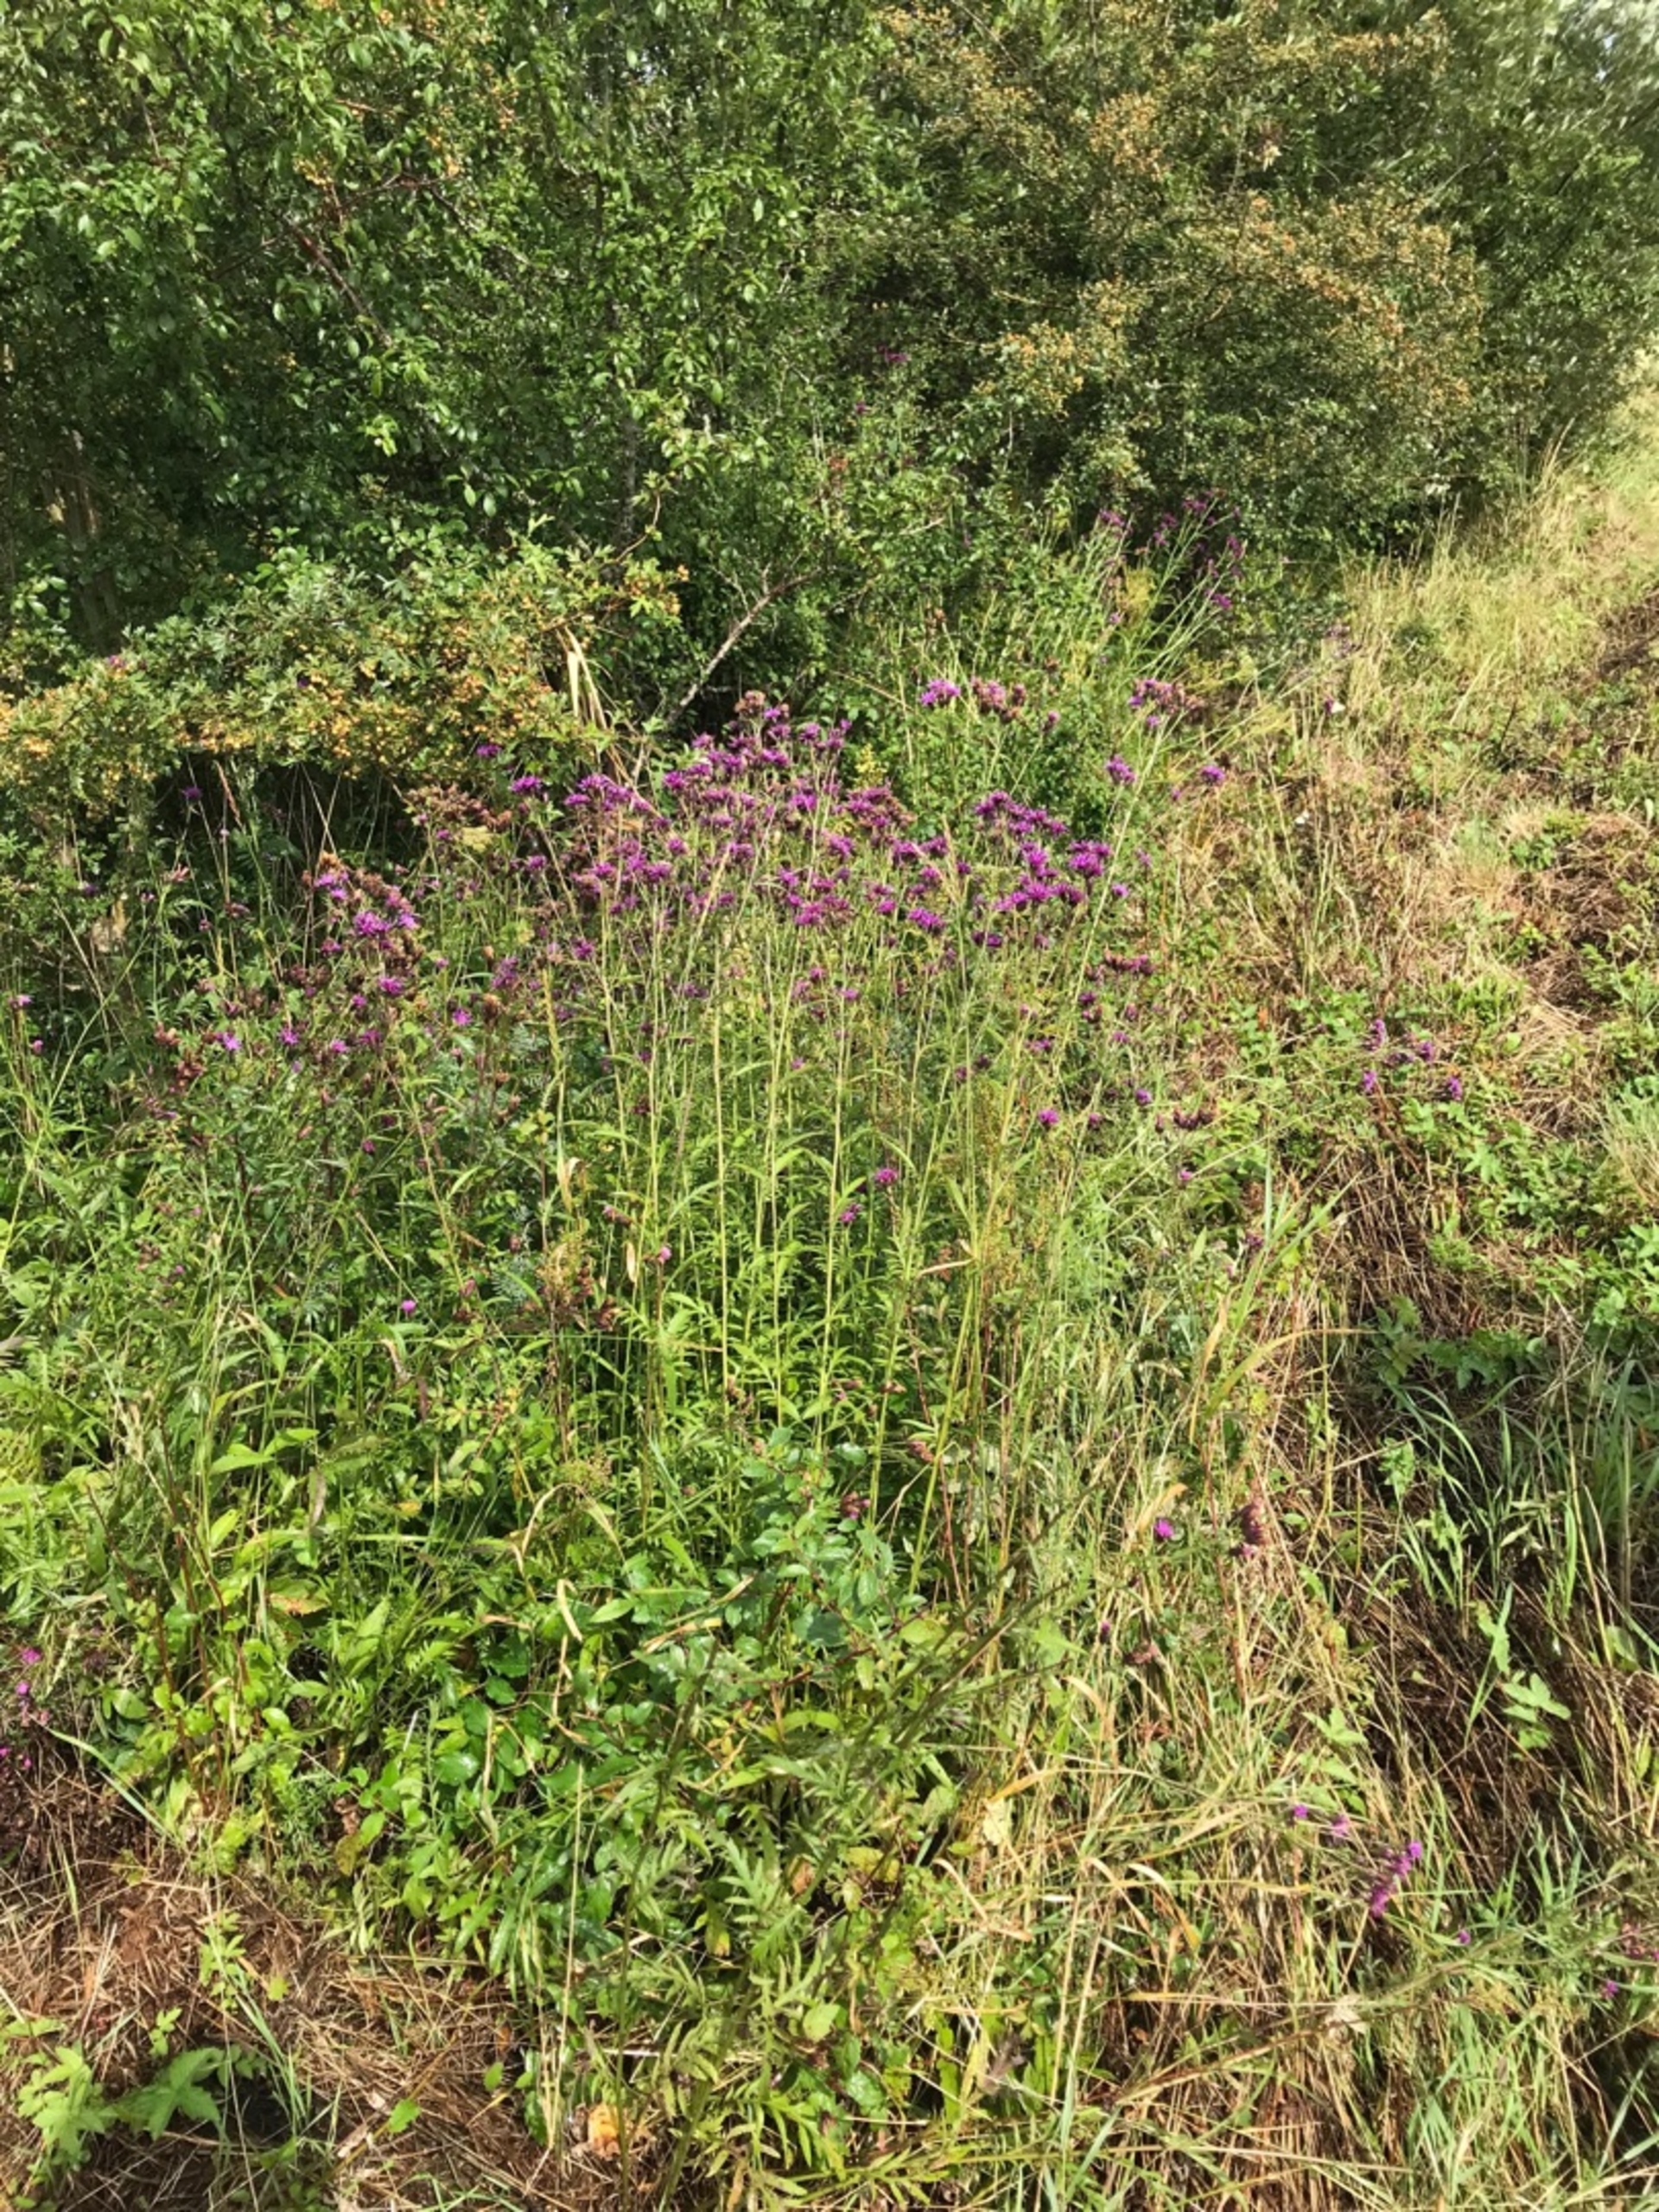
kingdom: Plantae
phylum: Tracheophyta
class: Magnoliopsida
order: Asterales
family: Asteraceae
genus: Serratula
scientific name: Serratula tinctoria
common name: Eng-skær
